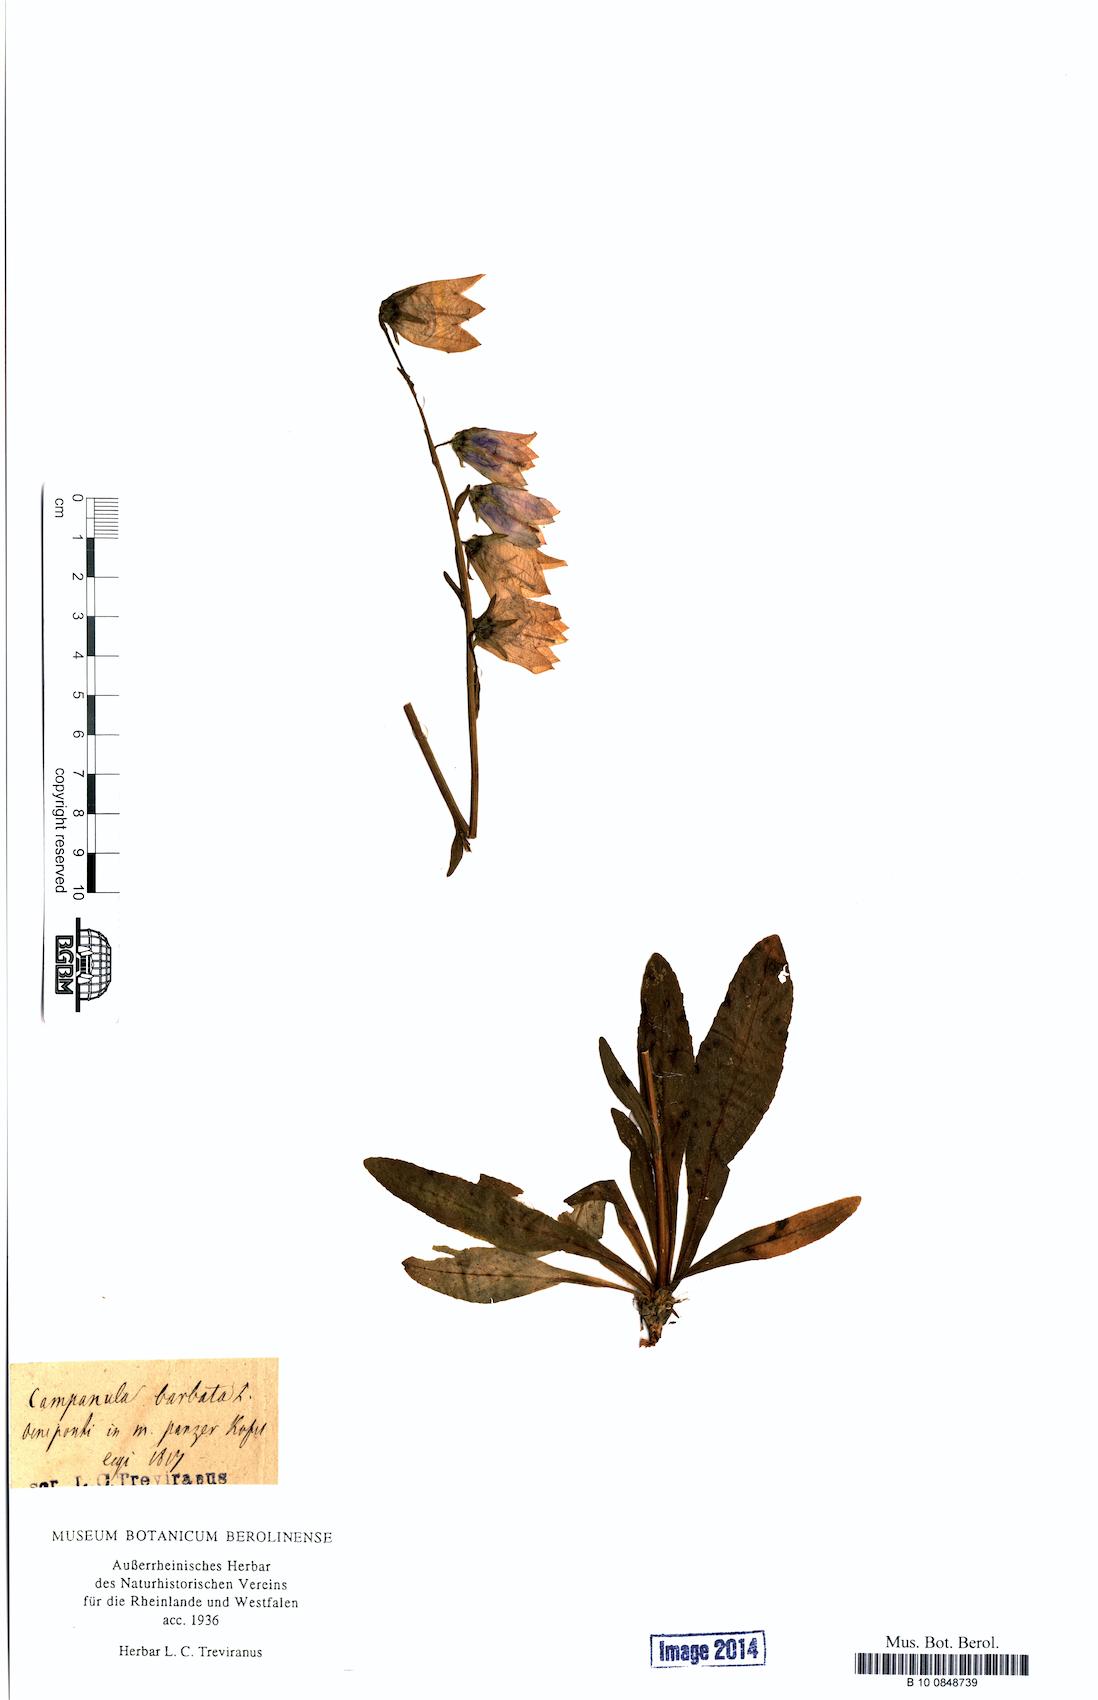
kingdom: Plantae
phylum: Tracheophyta
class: Magnoliopsida
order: Asterales
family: Campanulaceae
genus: Campanula
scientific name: Campanula barbata
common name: Bearded bellflower
